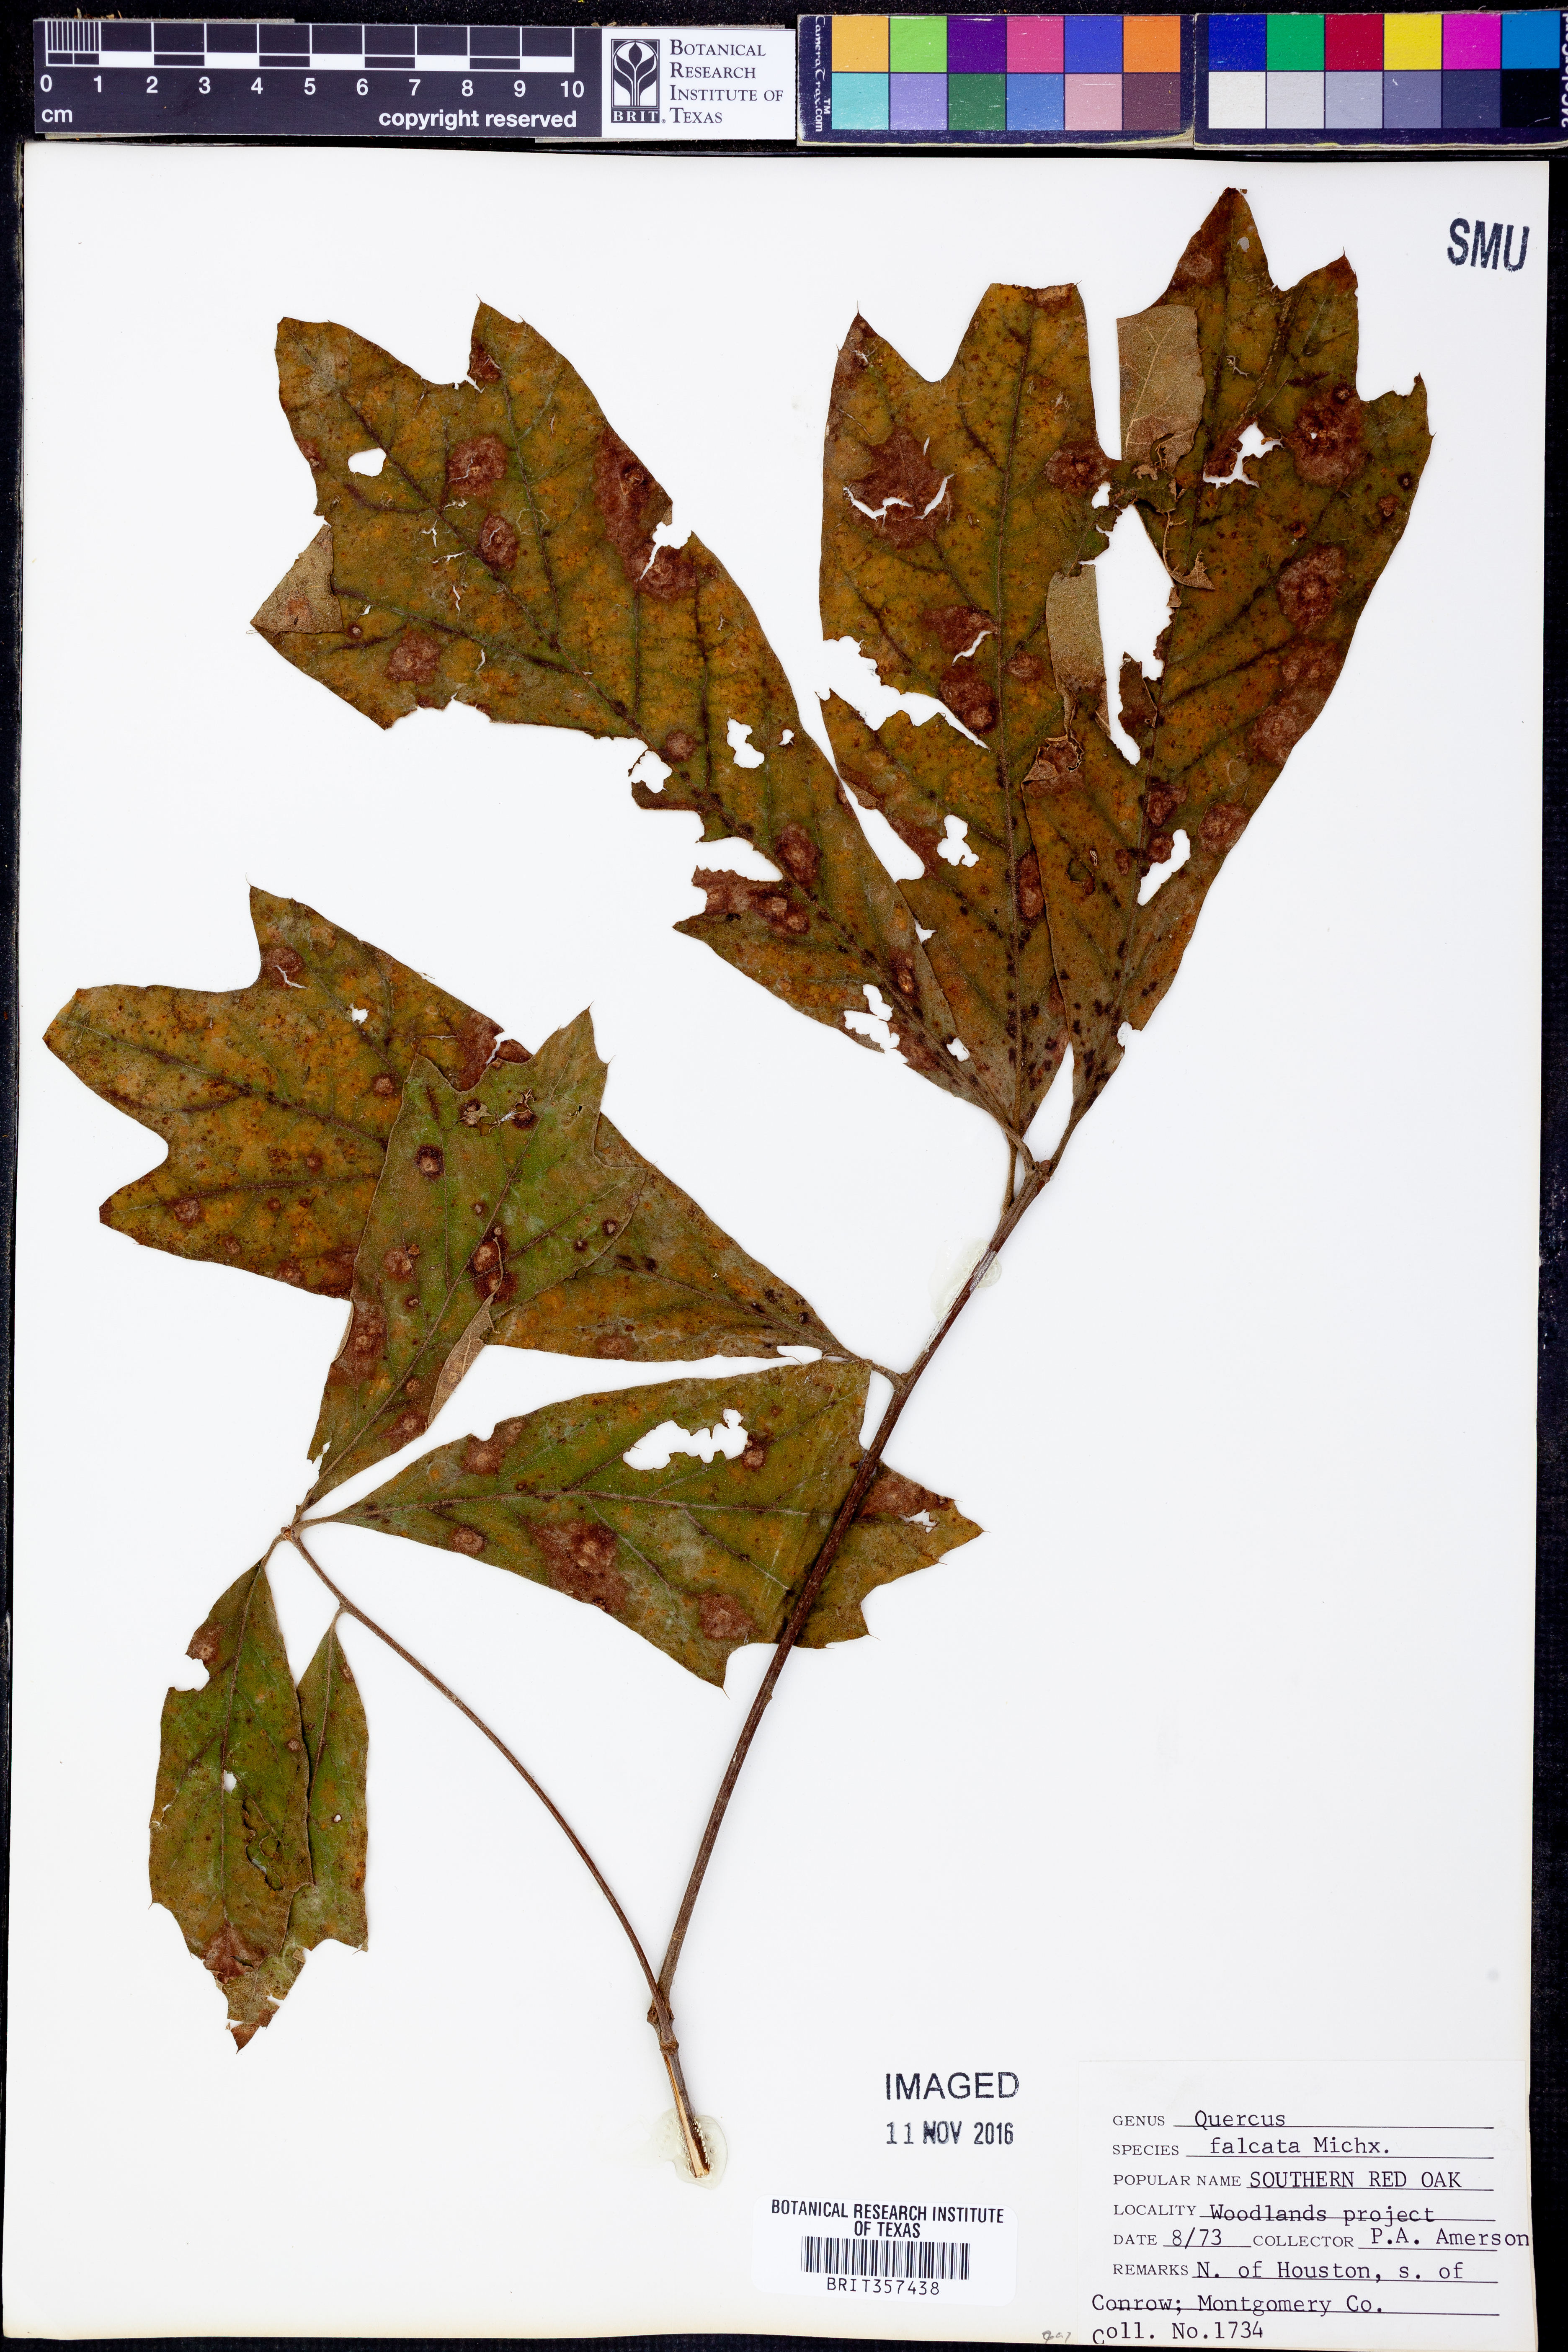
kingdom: Plantae
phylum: Tracheophyta
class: Magnoliopsida
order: Fagales
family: Fagaceae
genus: Quercus
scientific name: Quercus falcata
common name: Southern red oak
